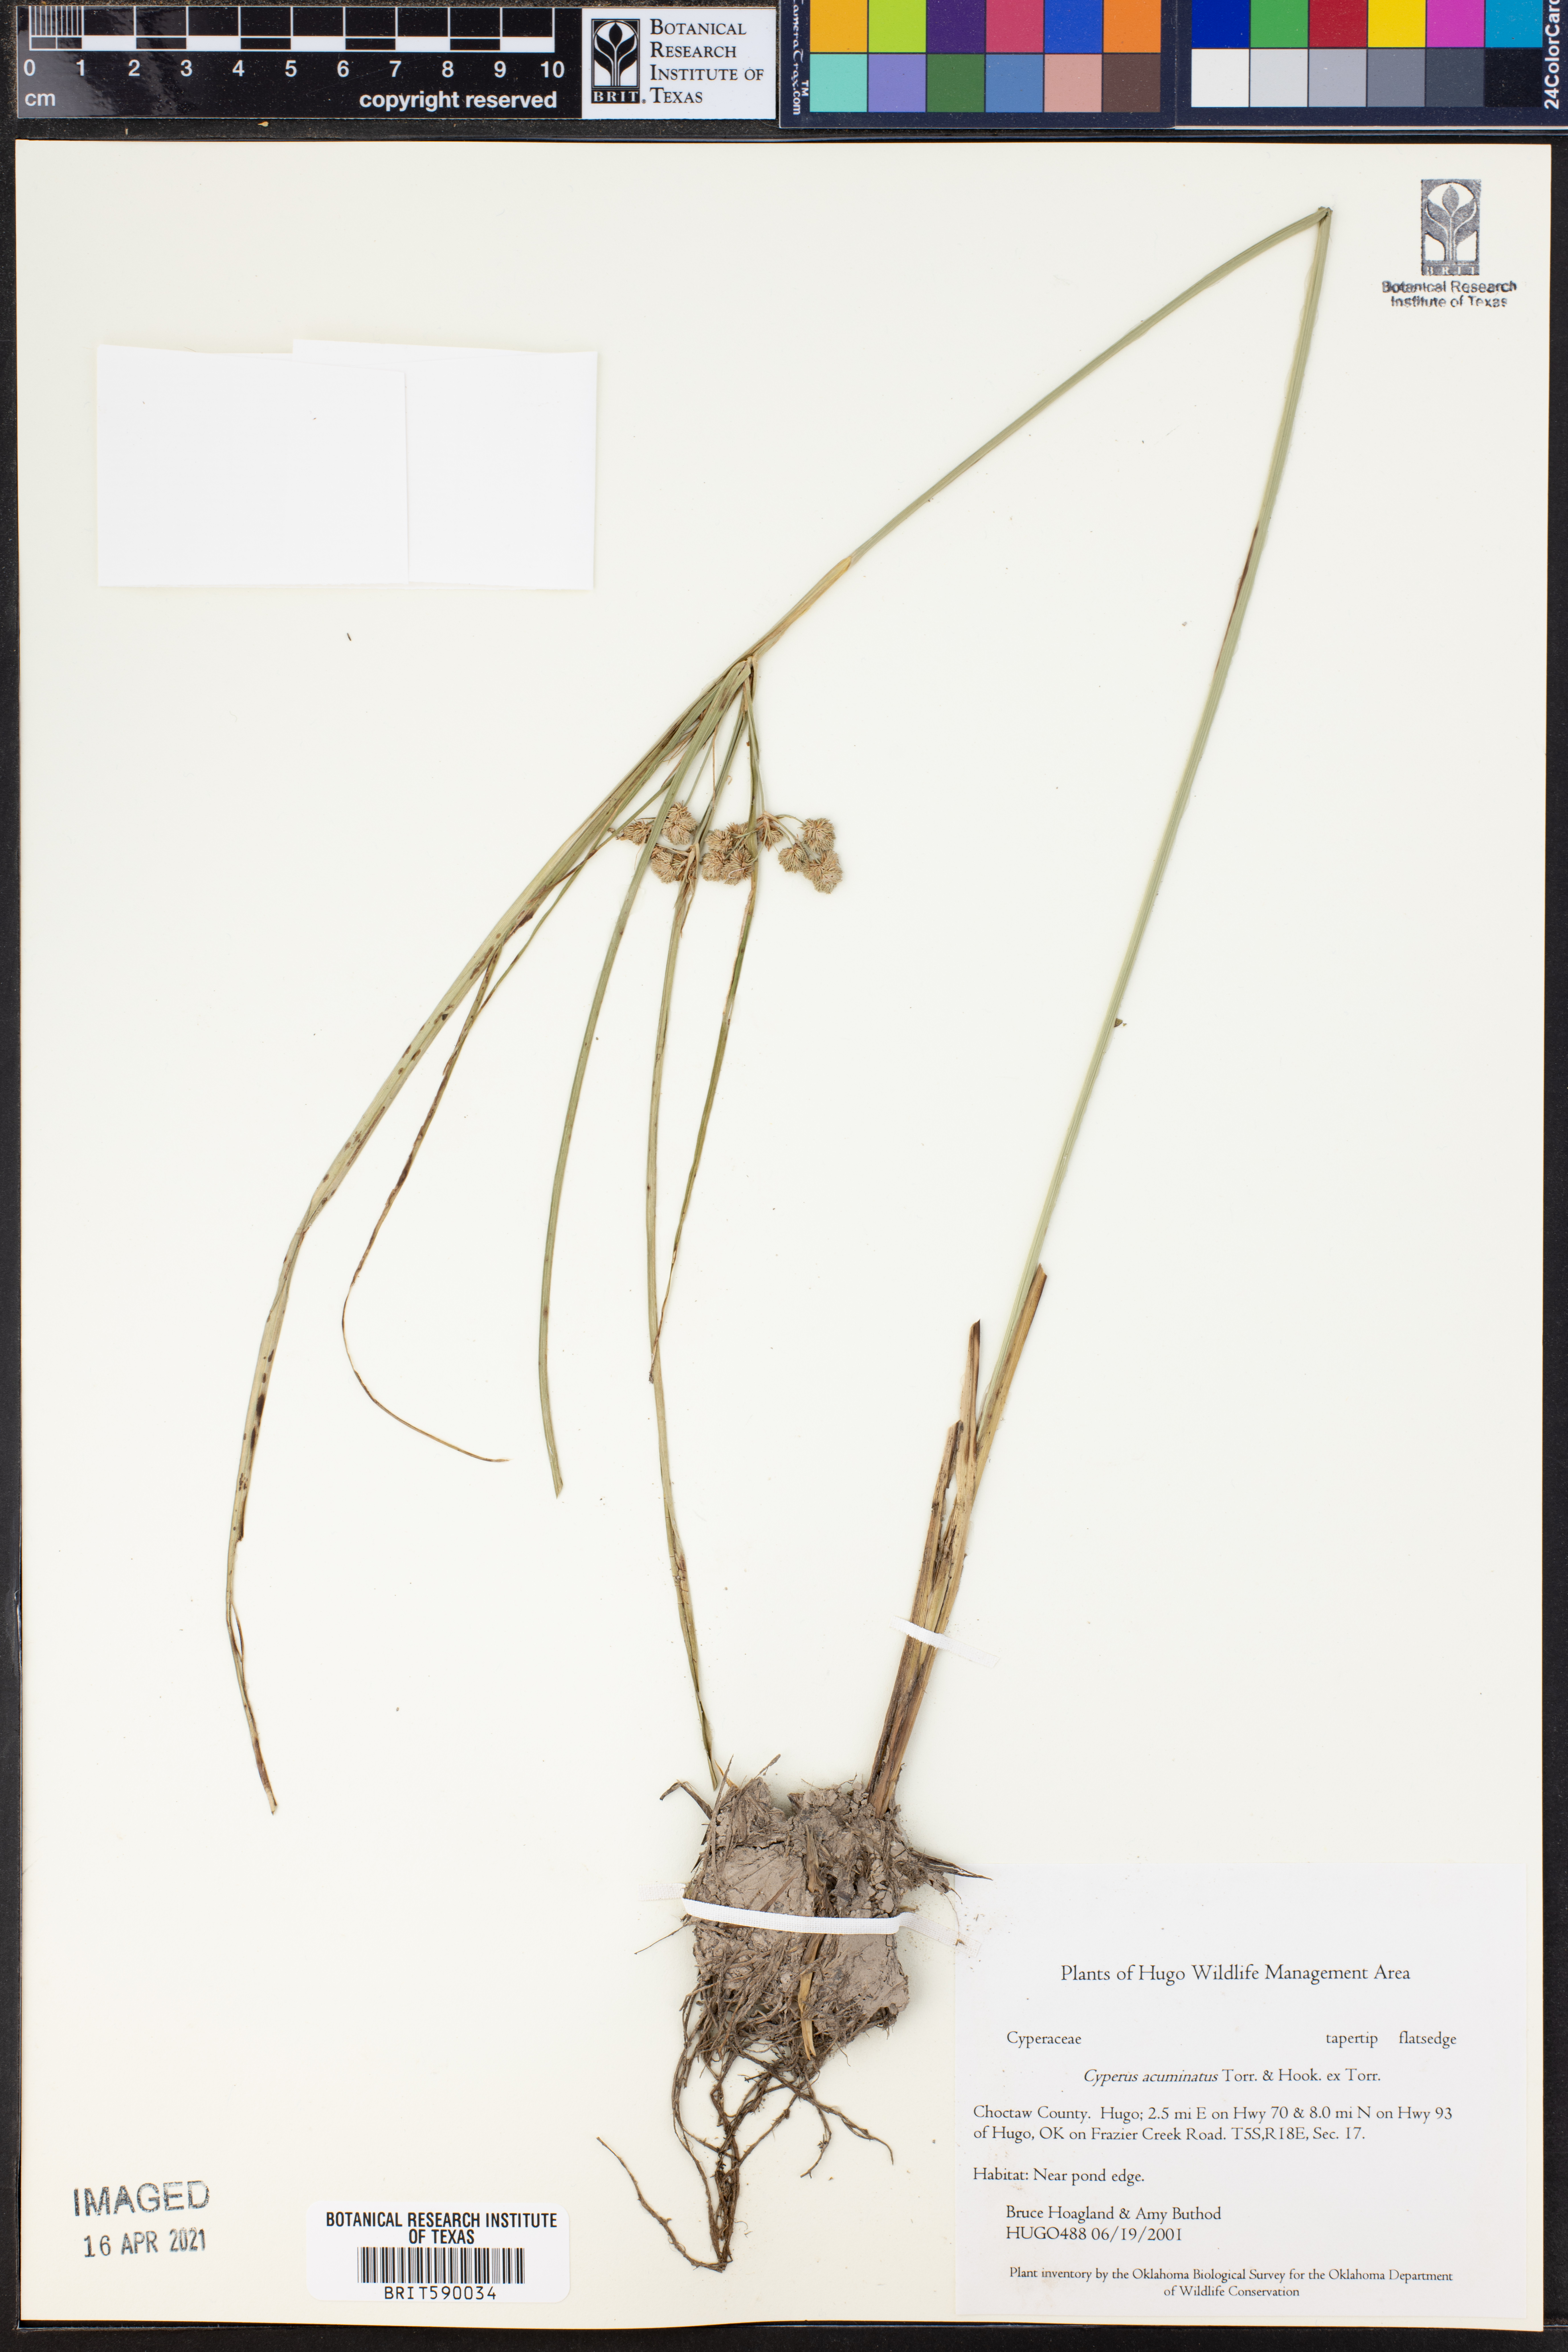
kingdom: Plantae
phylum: Tracheophyta
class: Liliopsida
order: Poales
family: Cyperaceae
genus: Cyperus
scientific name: Cyperus acuminatus
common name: Short-pointed cyperus
